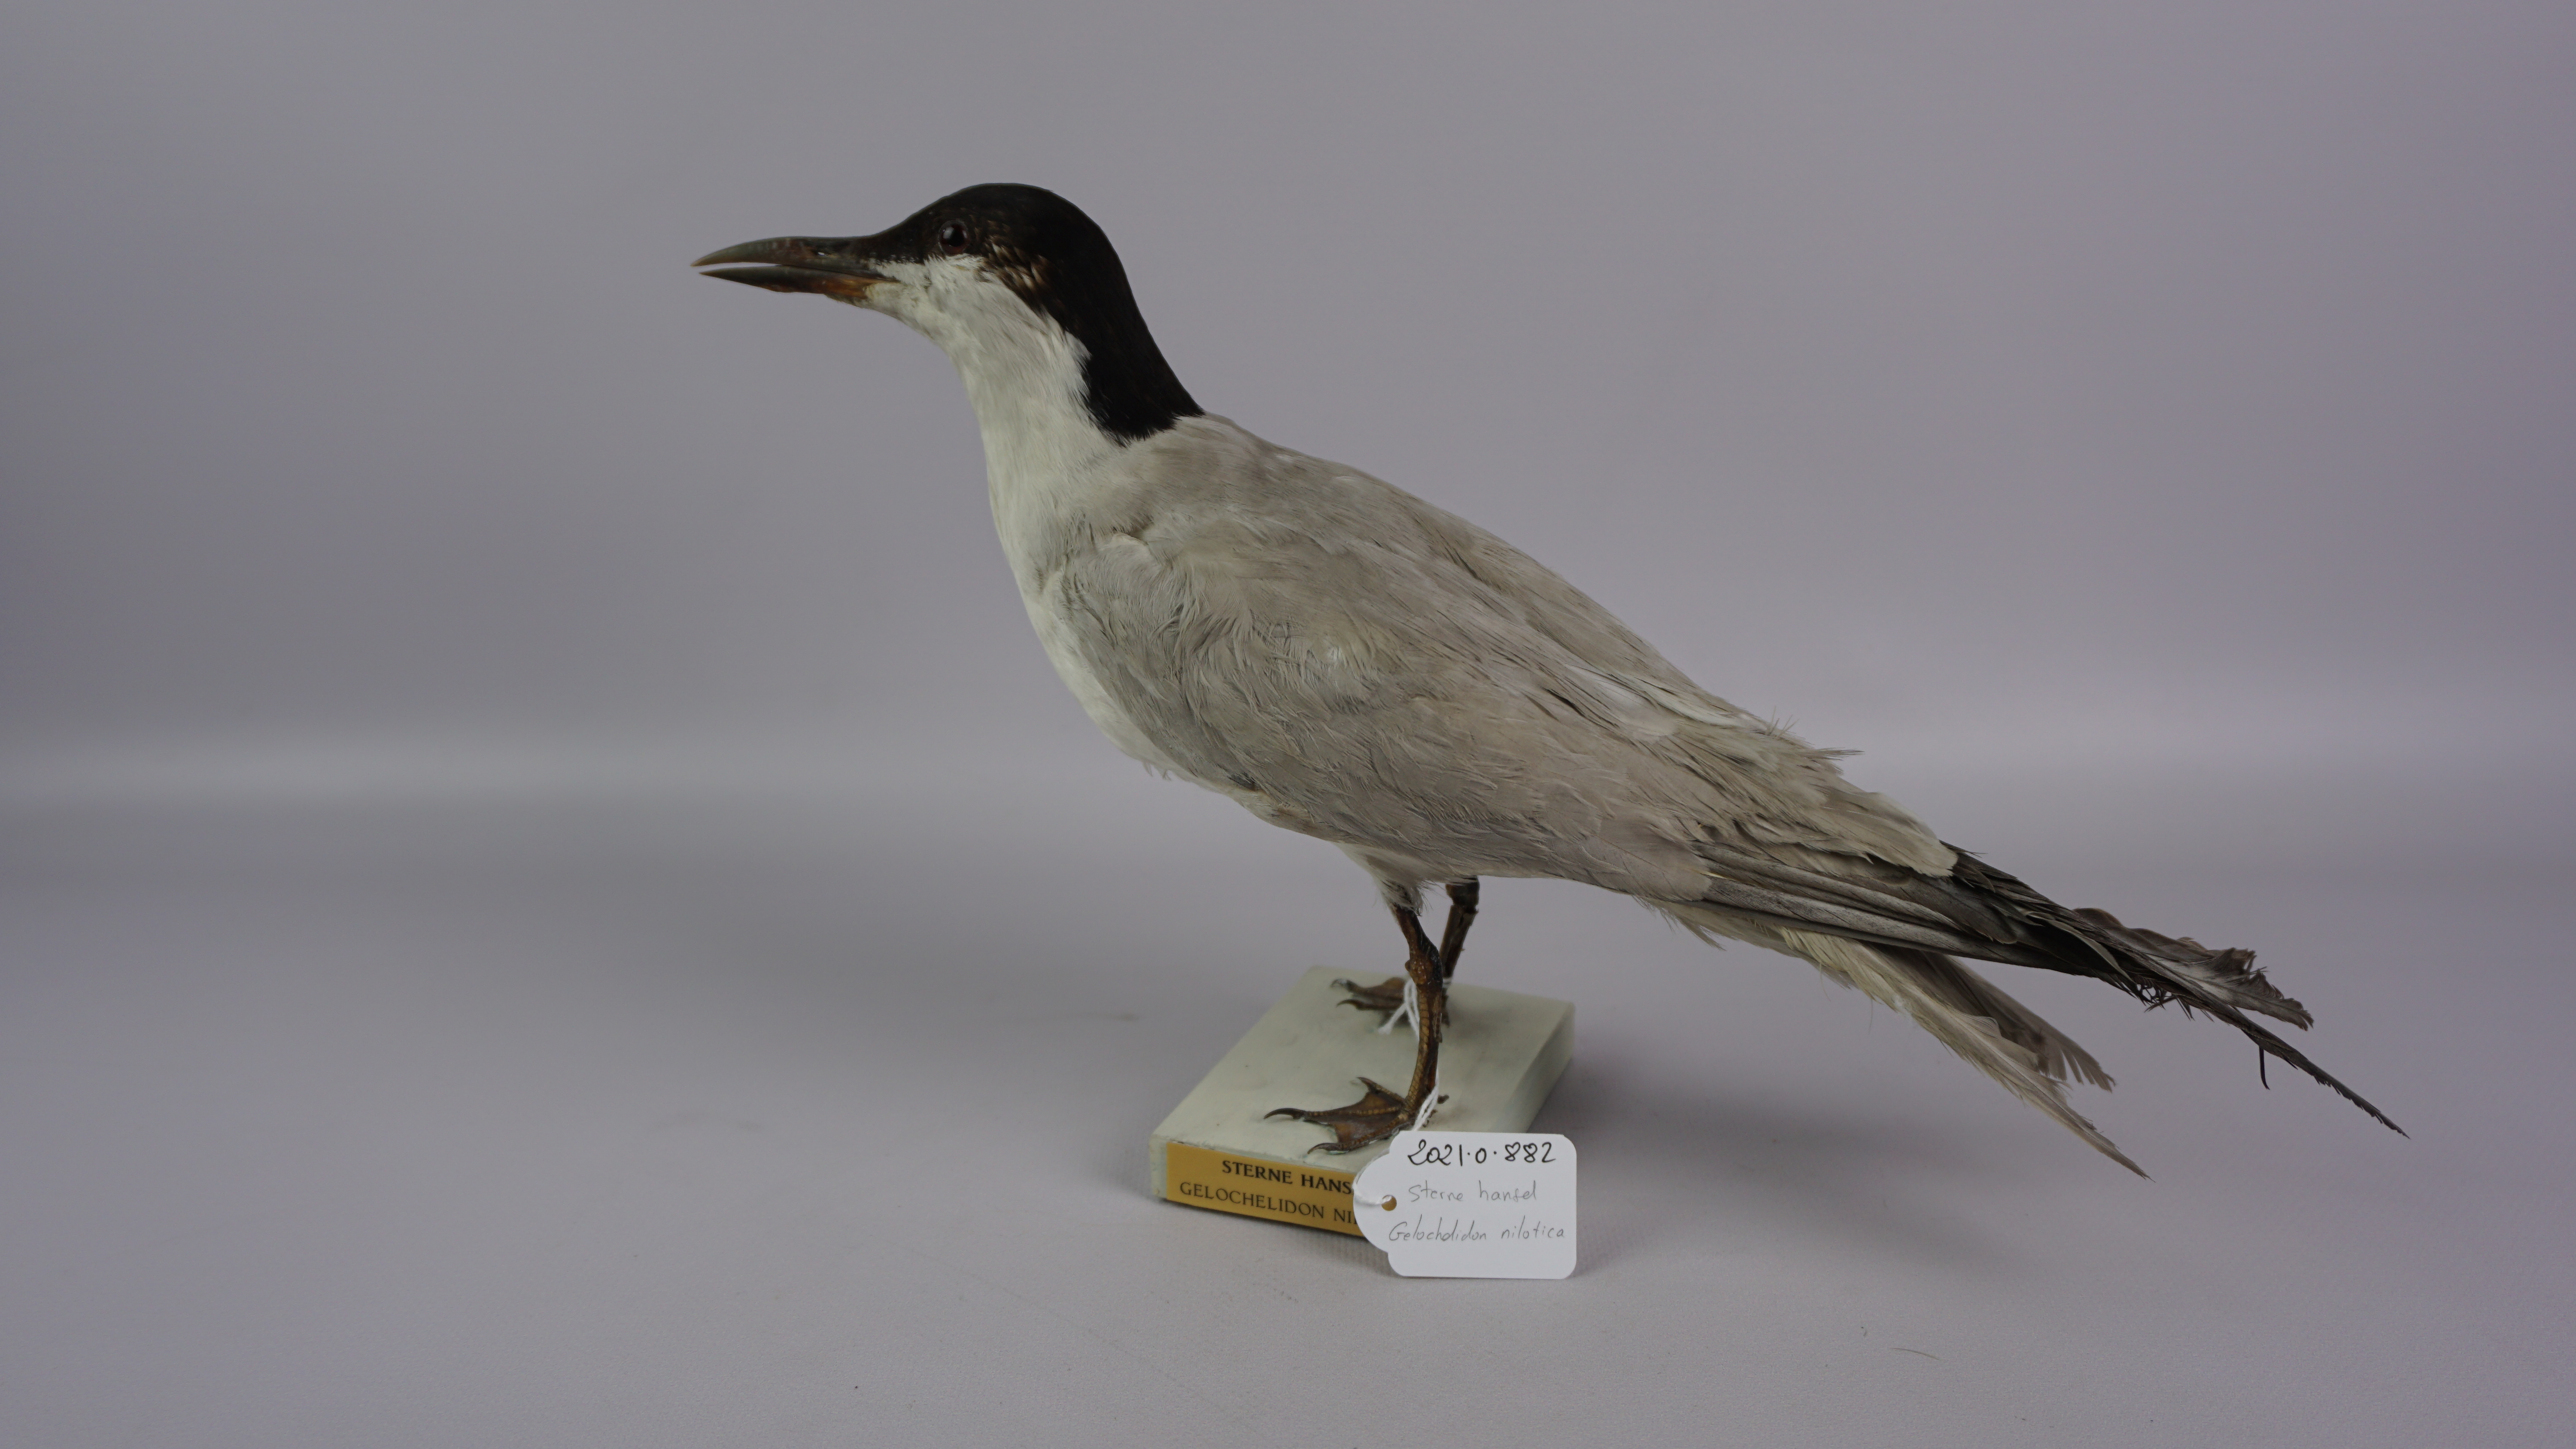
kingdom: Animalia
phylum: Chordata
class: Aves
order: Charadriiformes
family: Laridae
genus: Gelochelidon
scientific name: Gelochelidon nilotica
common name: Gull-billed tern
